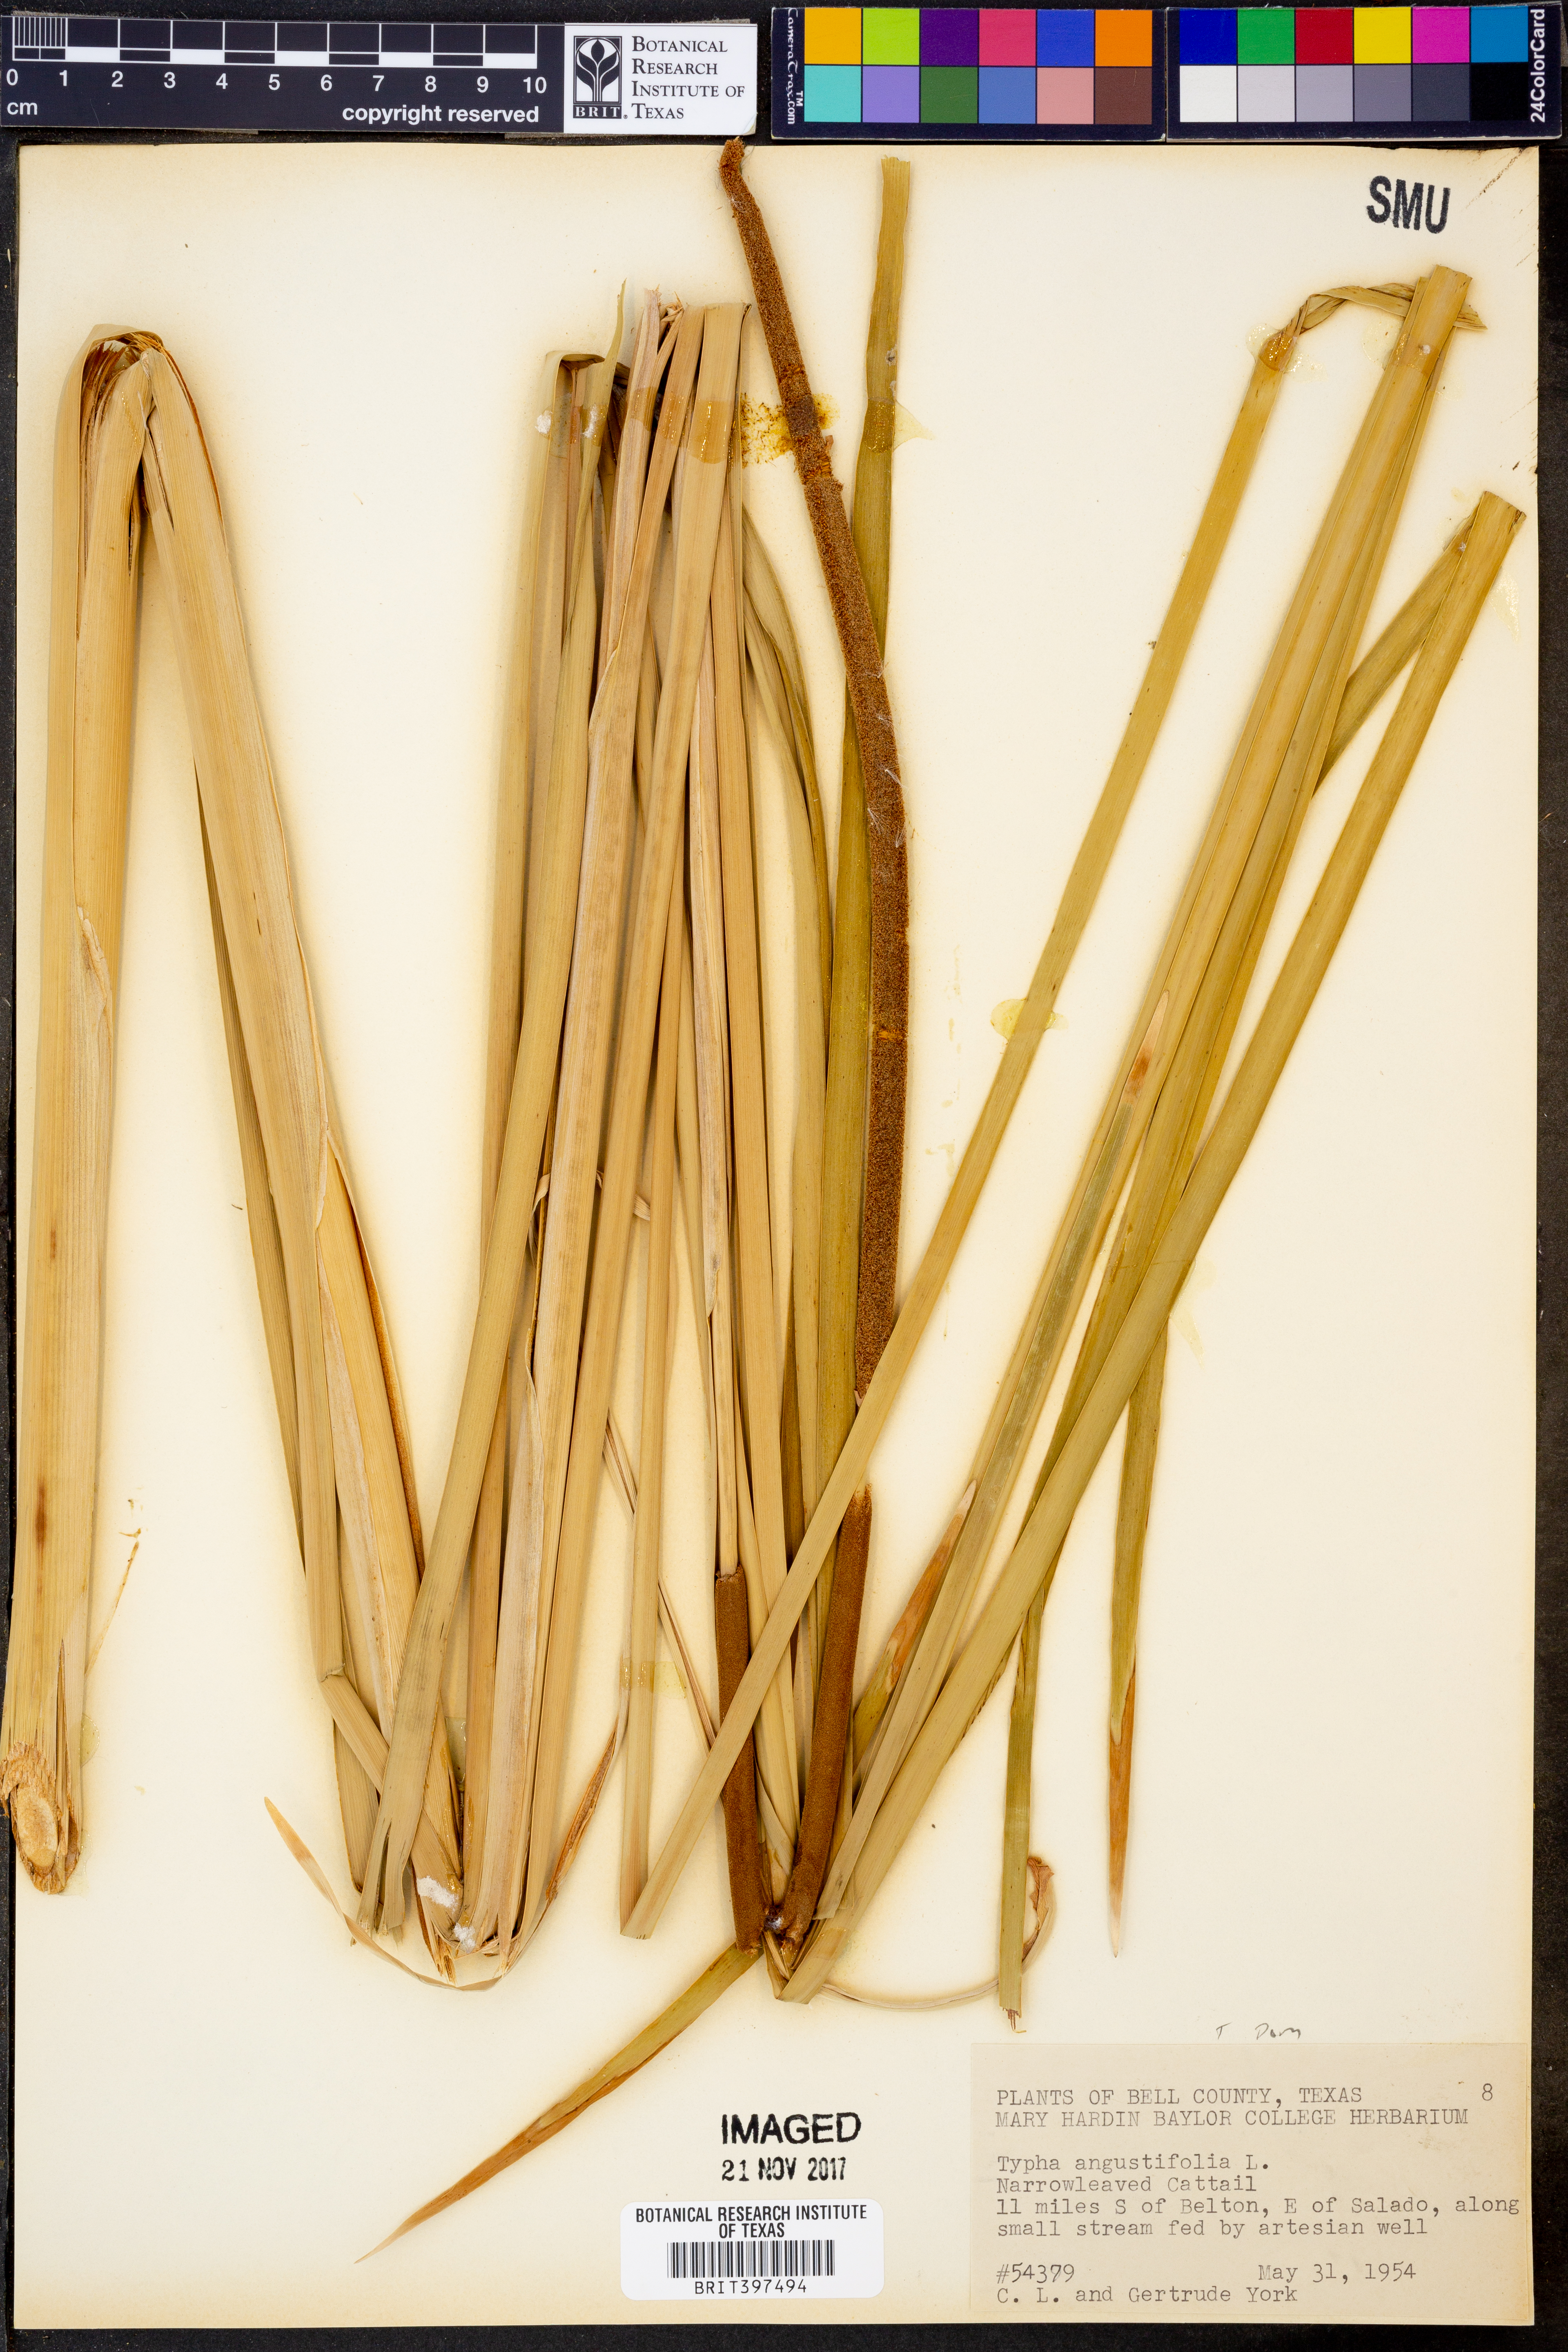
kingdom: Plantae
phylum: Tracheophyta
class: Liliopsida
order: Poales
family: Typhaceae
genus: Typha
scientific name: Typha angustifolia
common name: Lesser bulrush
